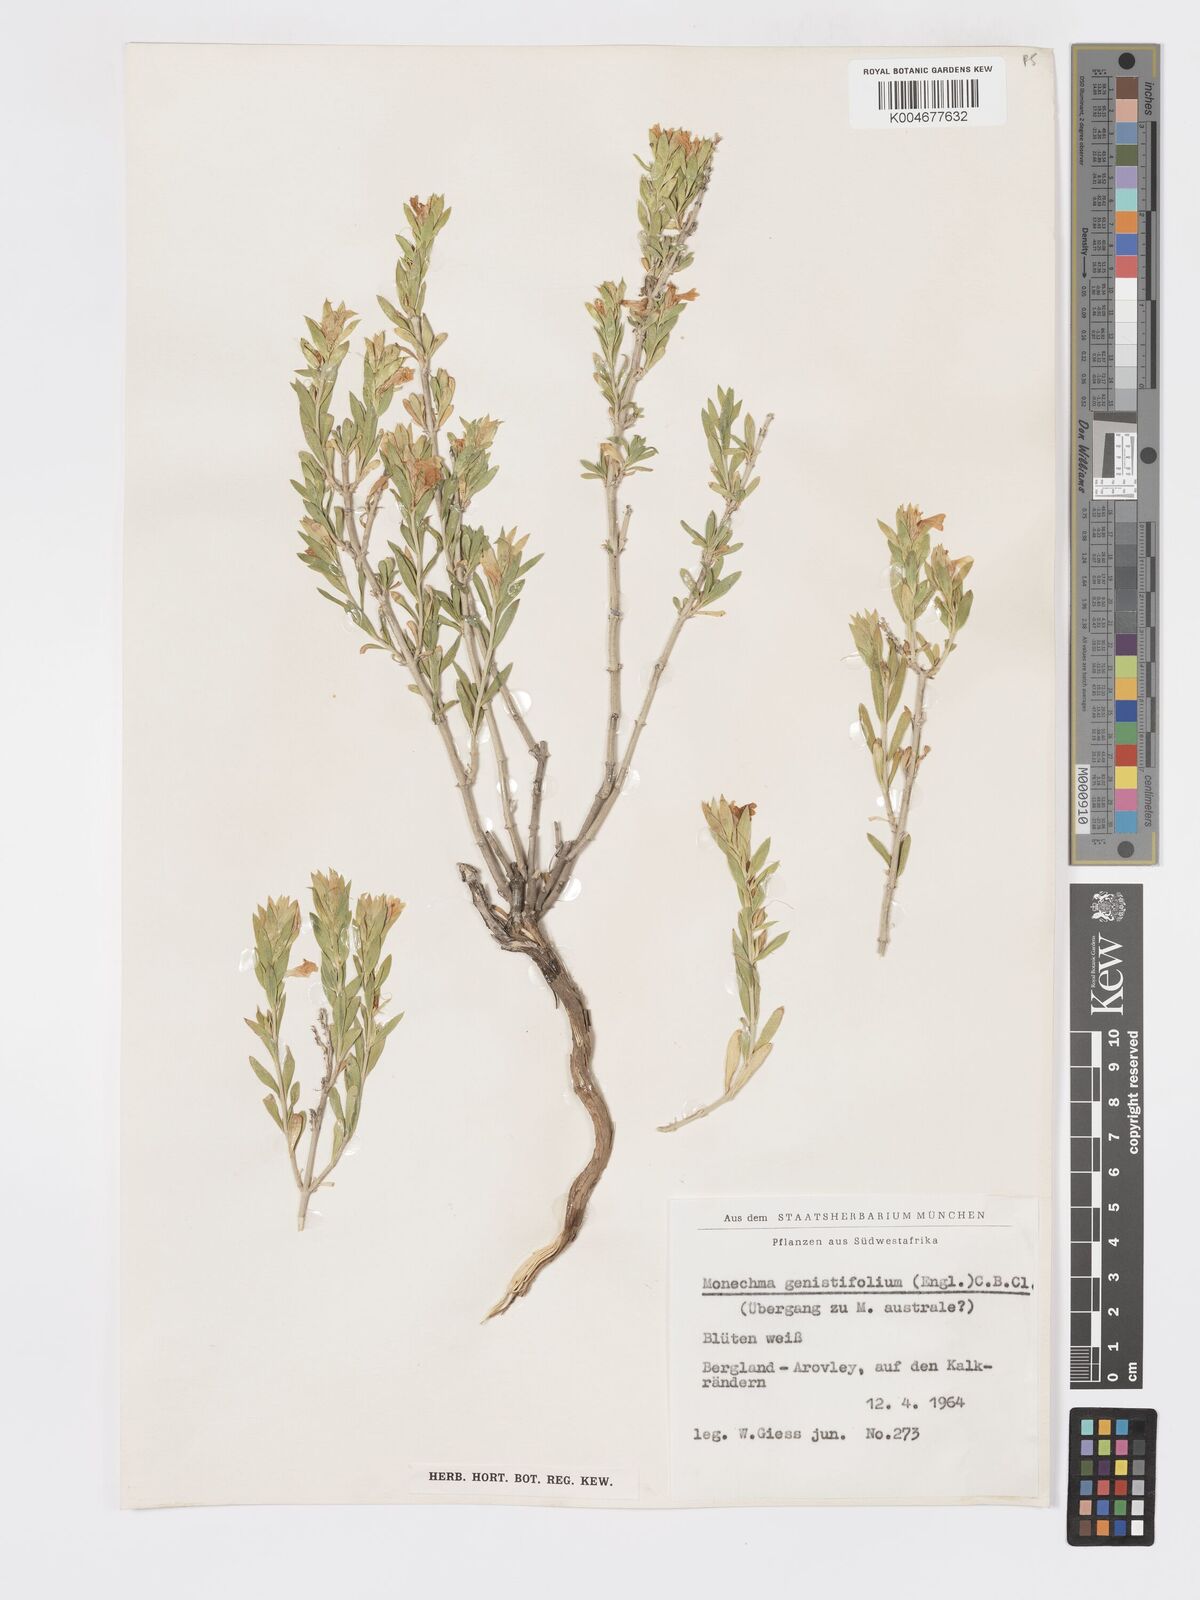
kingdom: Plantae
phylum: Tracheophyta
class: Magnoliopsida
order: Lamiales
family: Acanthaceae
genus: Pogonospermum
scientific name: Pogonospermum
